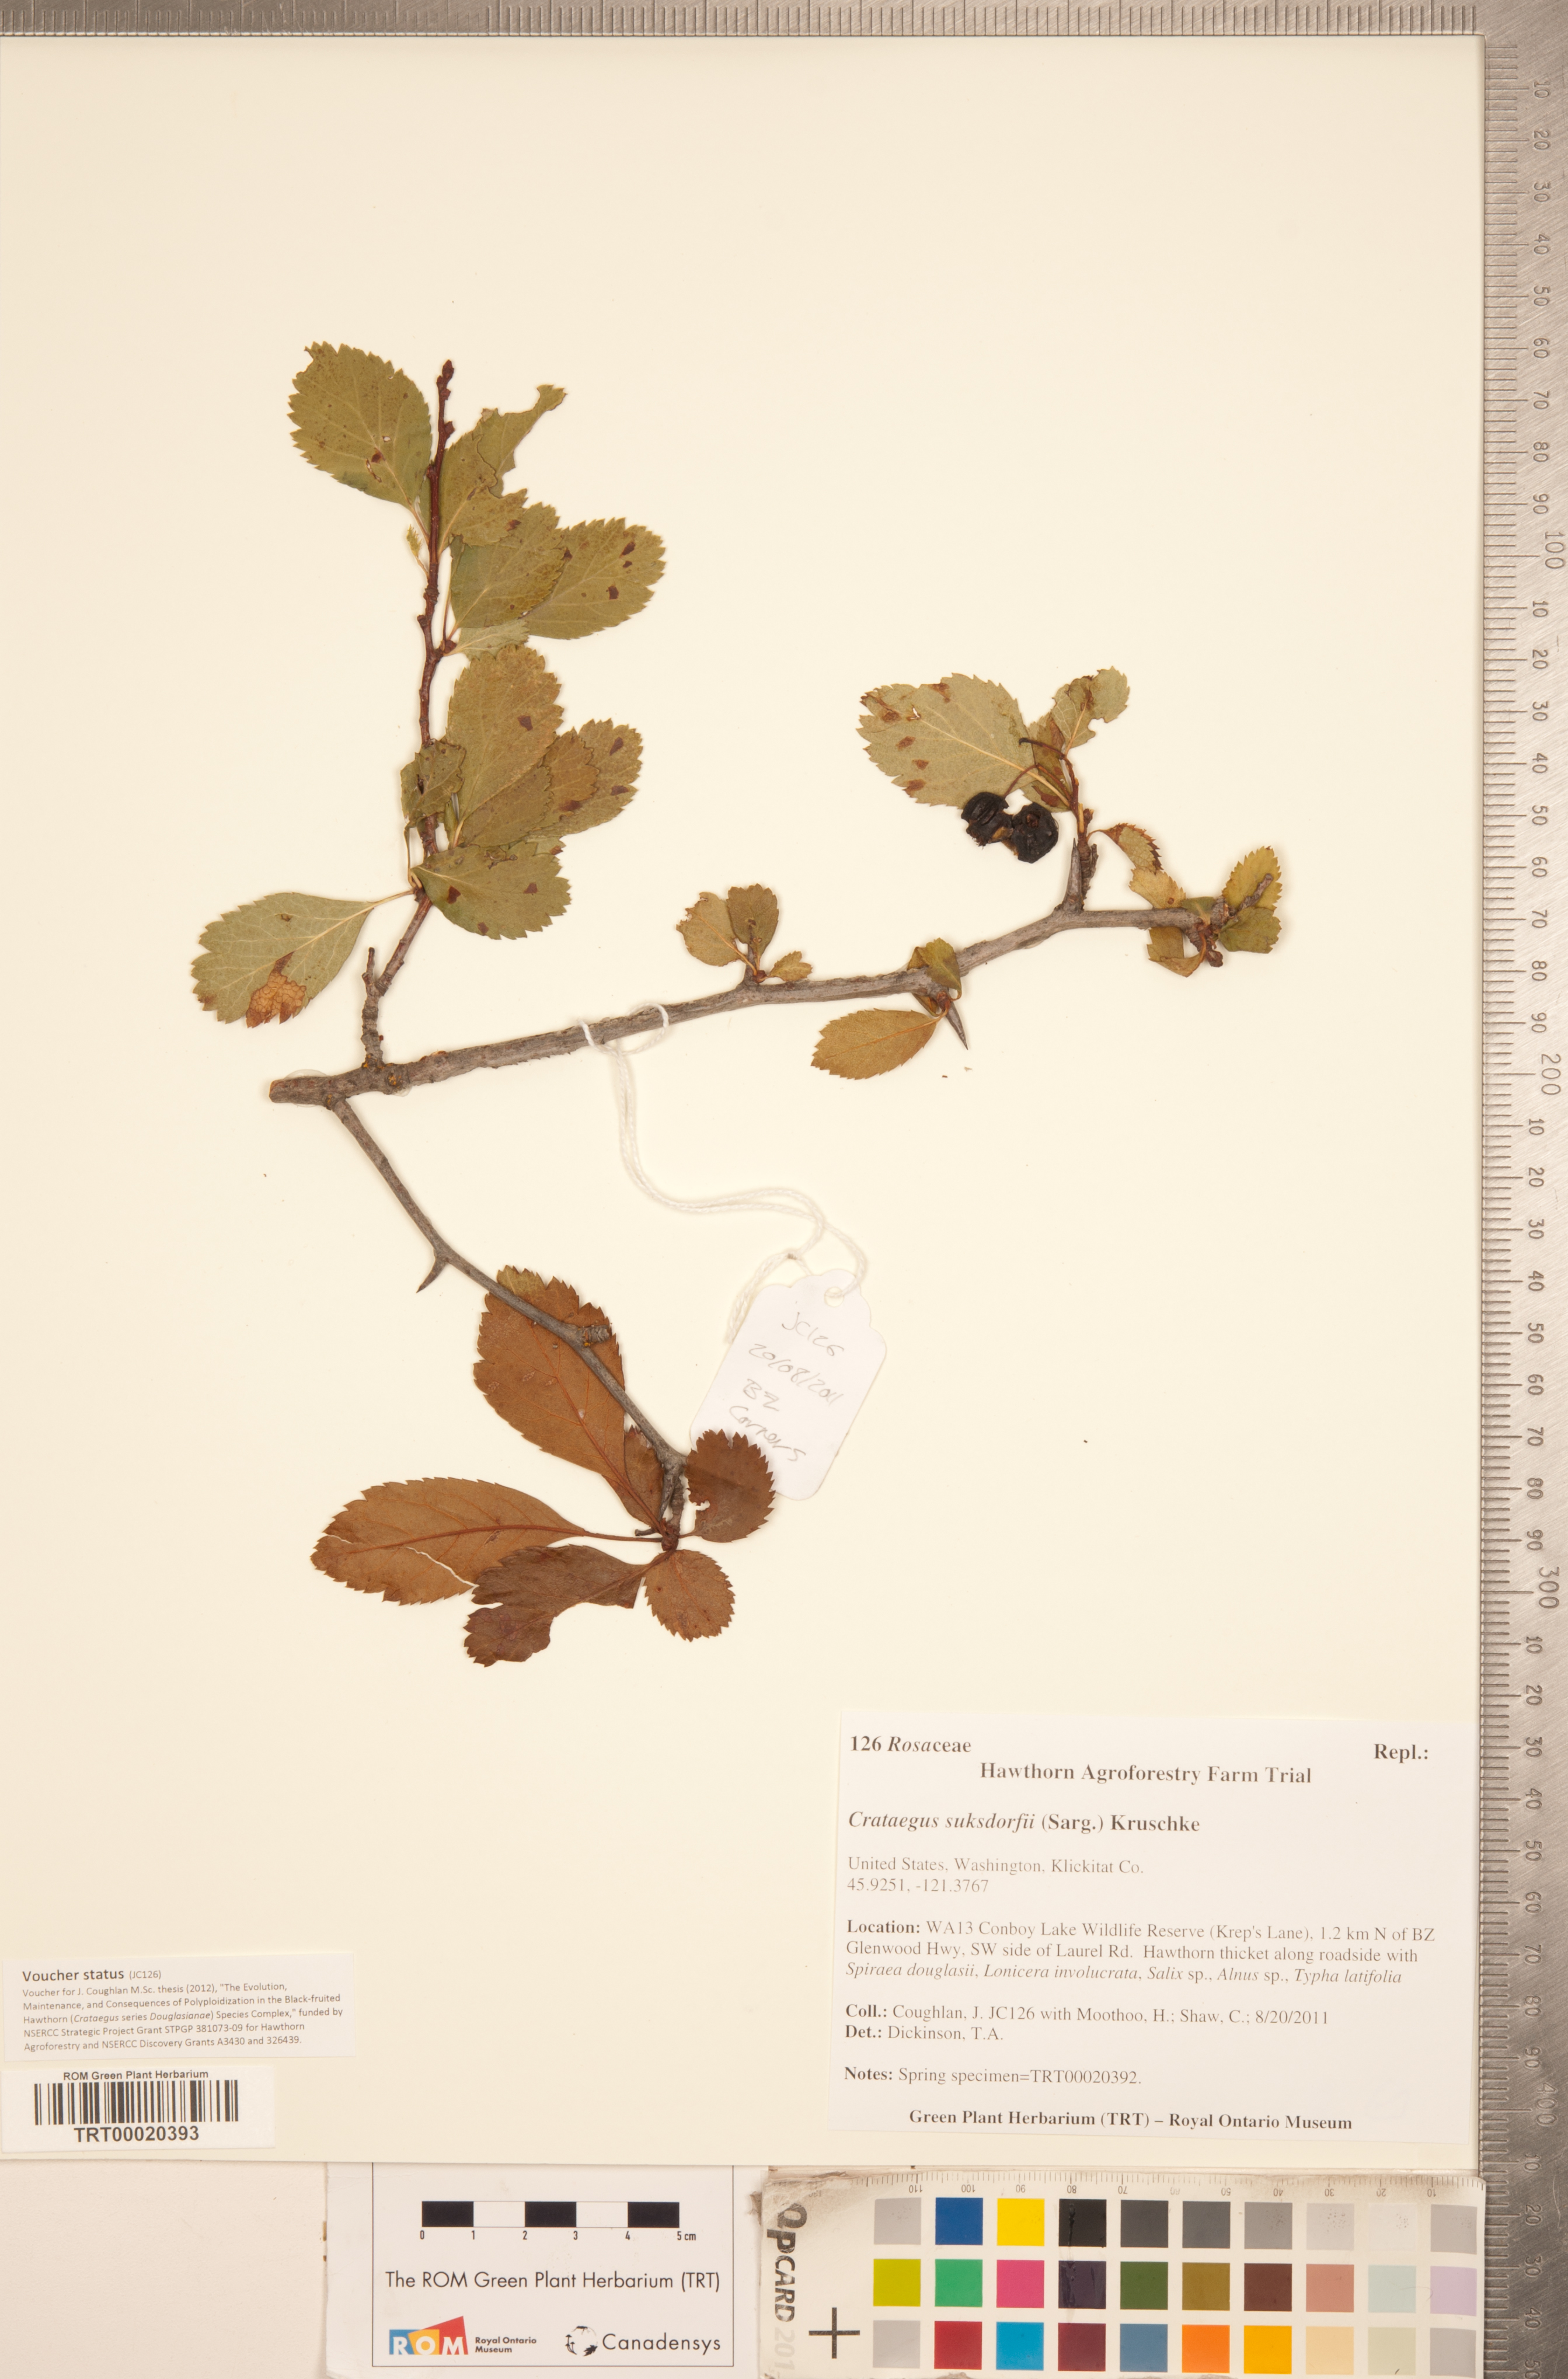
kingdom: Plantae
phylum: Tracheophyta
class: Magnoliopsida
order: Rosales
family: Rosaceae
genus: Crataegus
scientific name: Crataegus gaylussacia
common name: Huckleberry hawthorn
